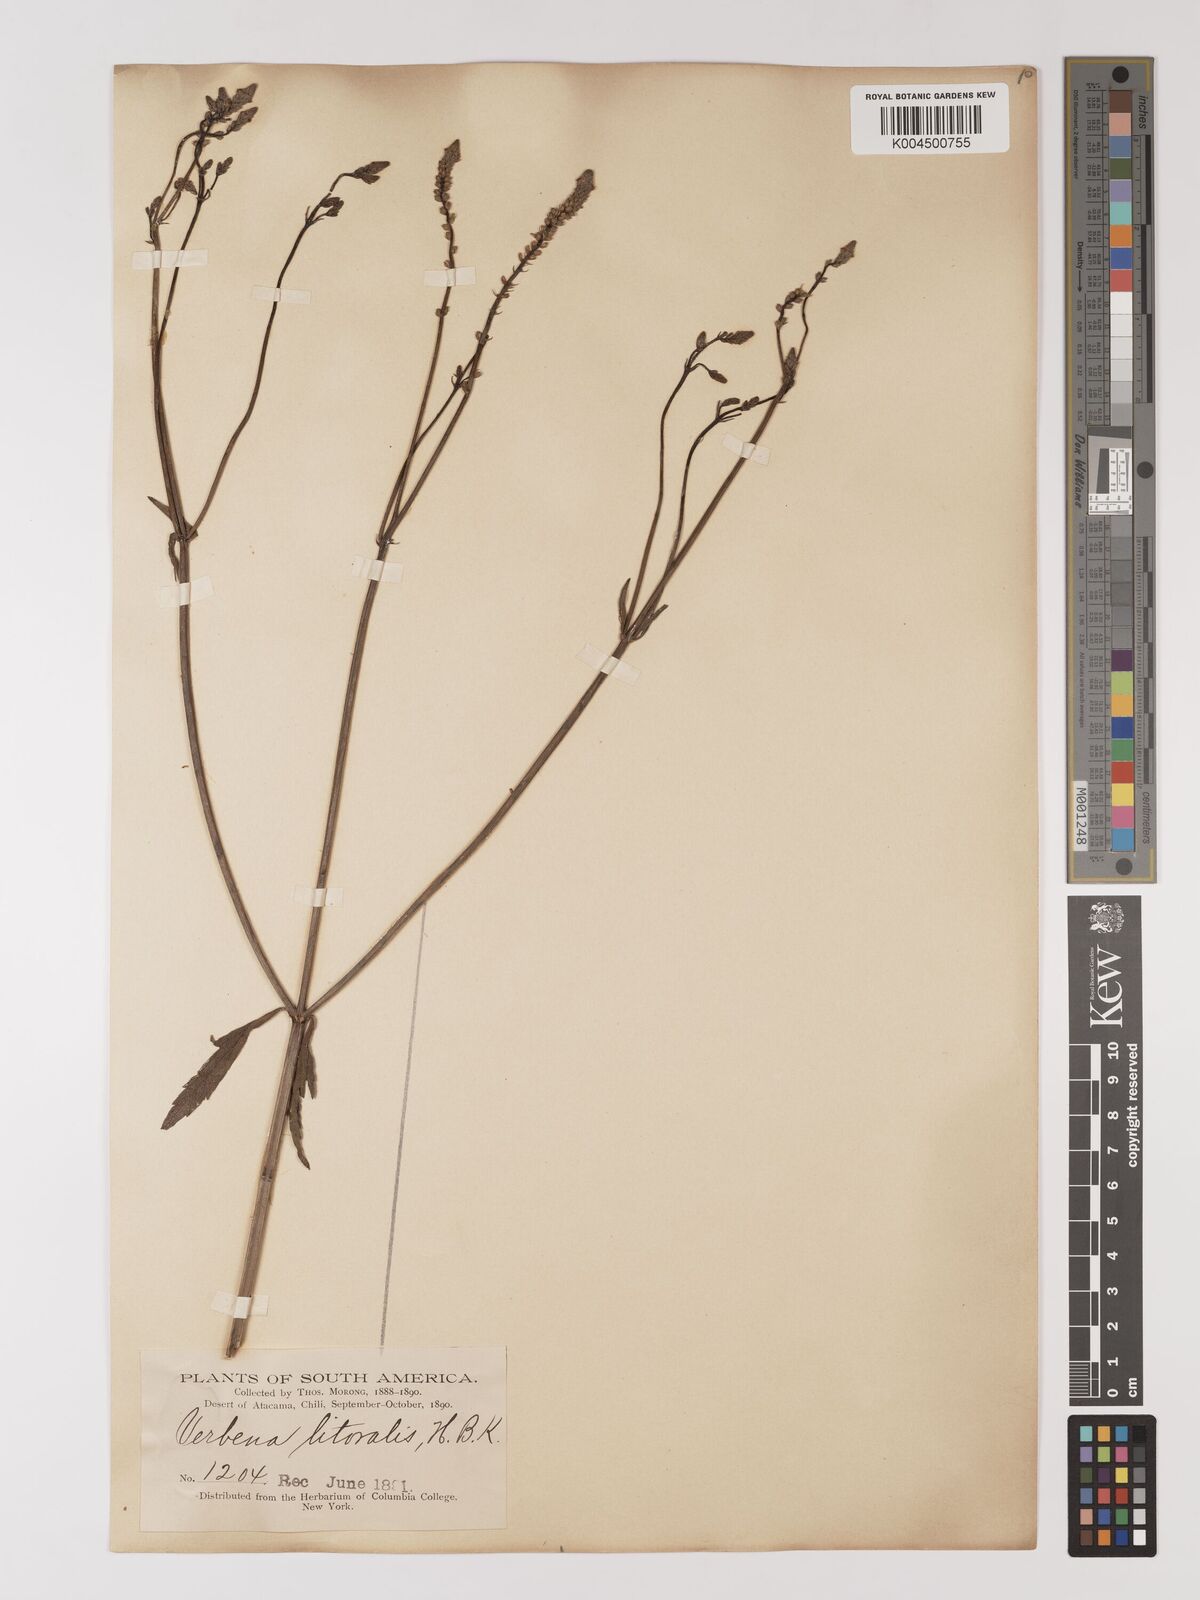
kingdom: Plantae
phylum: Tracheophyta
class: Magnoliopsida
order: Lamiales
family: Verbenaceae
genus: Verbena
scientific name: Verbena litoralis
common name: Seashore vervain
